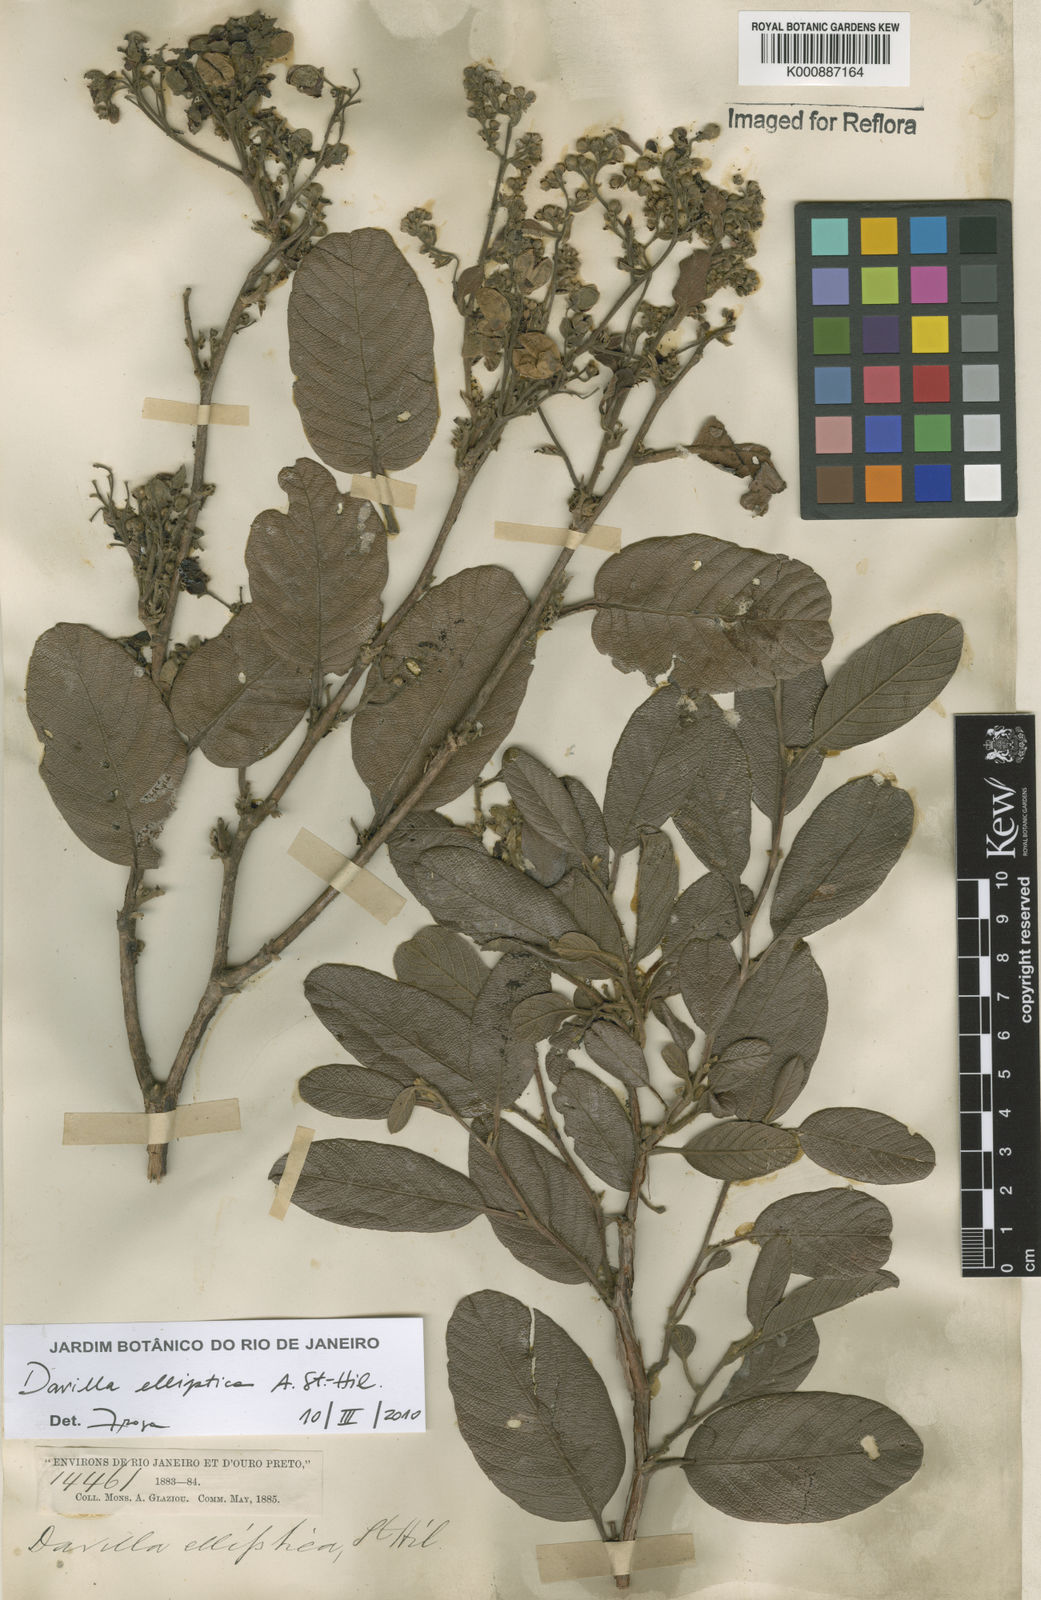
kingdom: Plantae
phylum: Tracheophyta
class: Magnoliopsida
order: Dilleniales
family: Dilleniaceae
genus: Davilla
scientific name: Davilla elliptica
